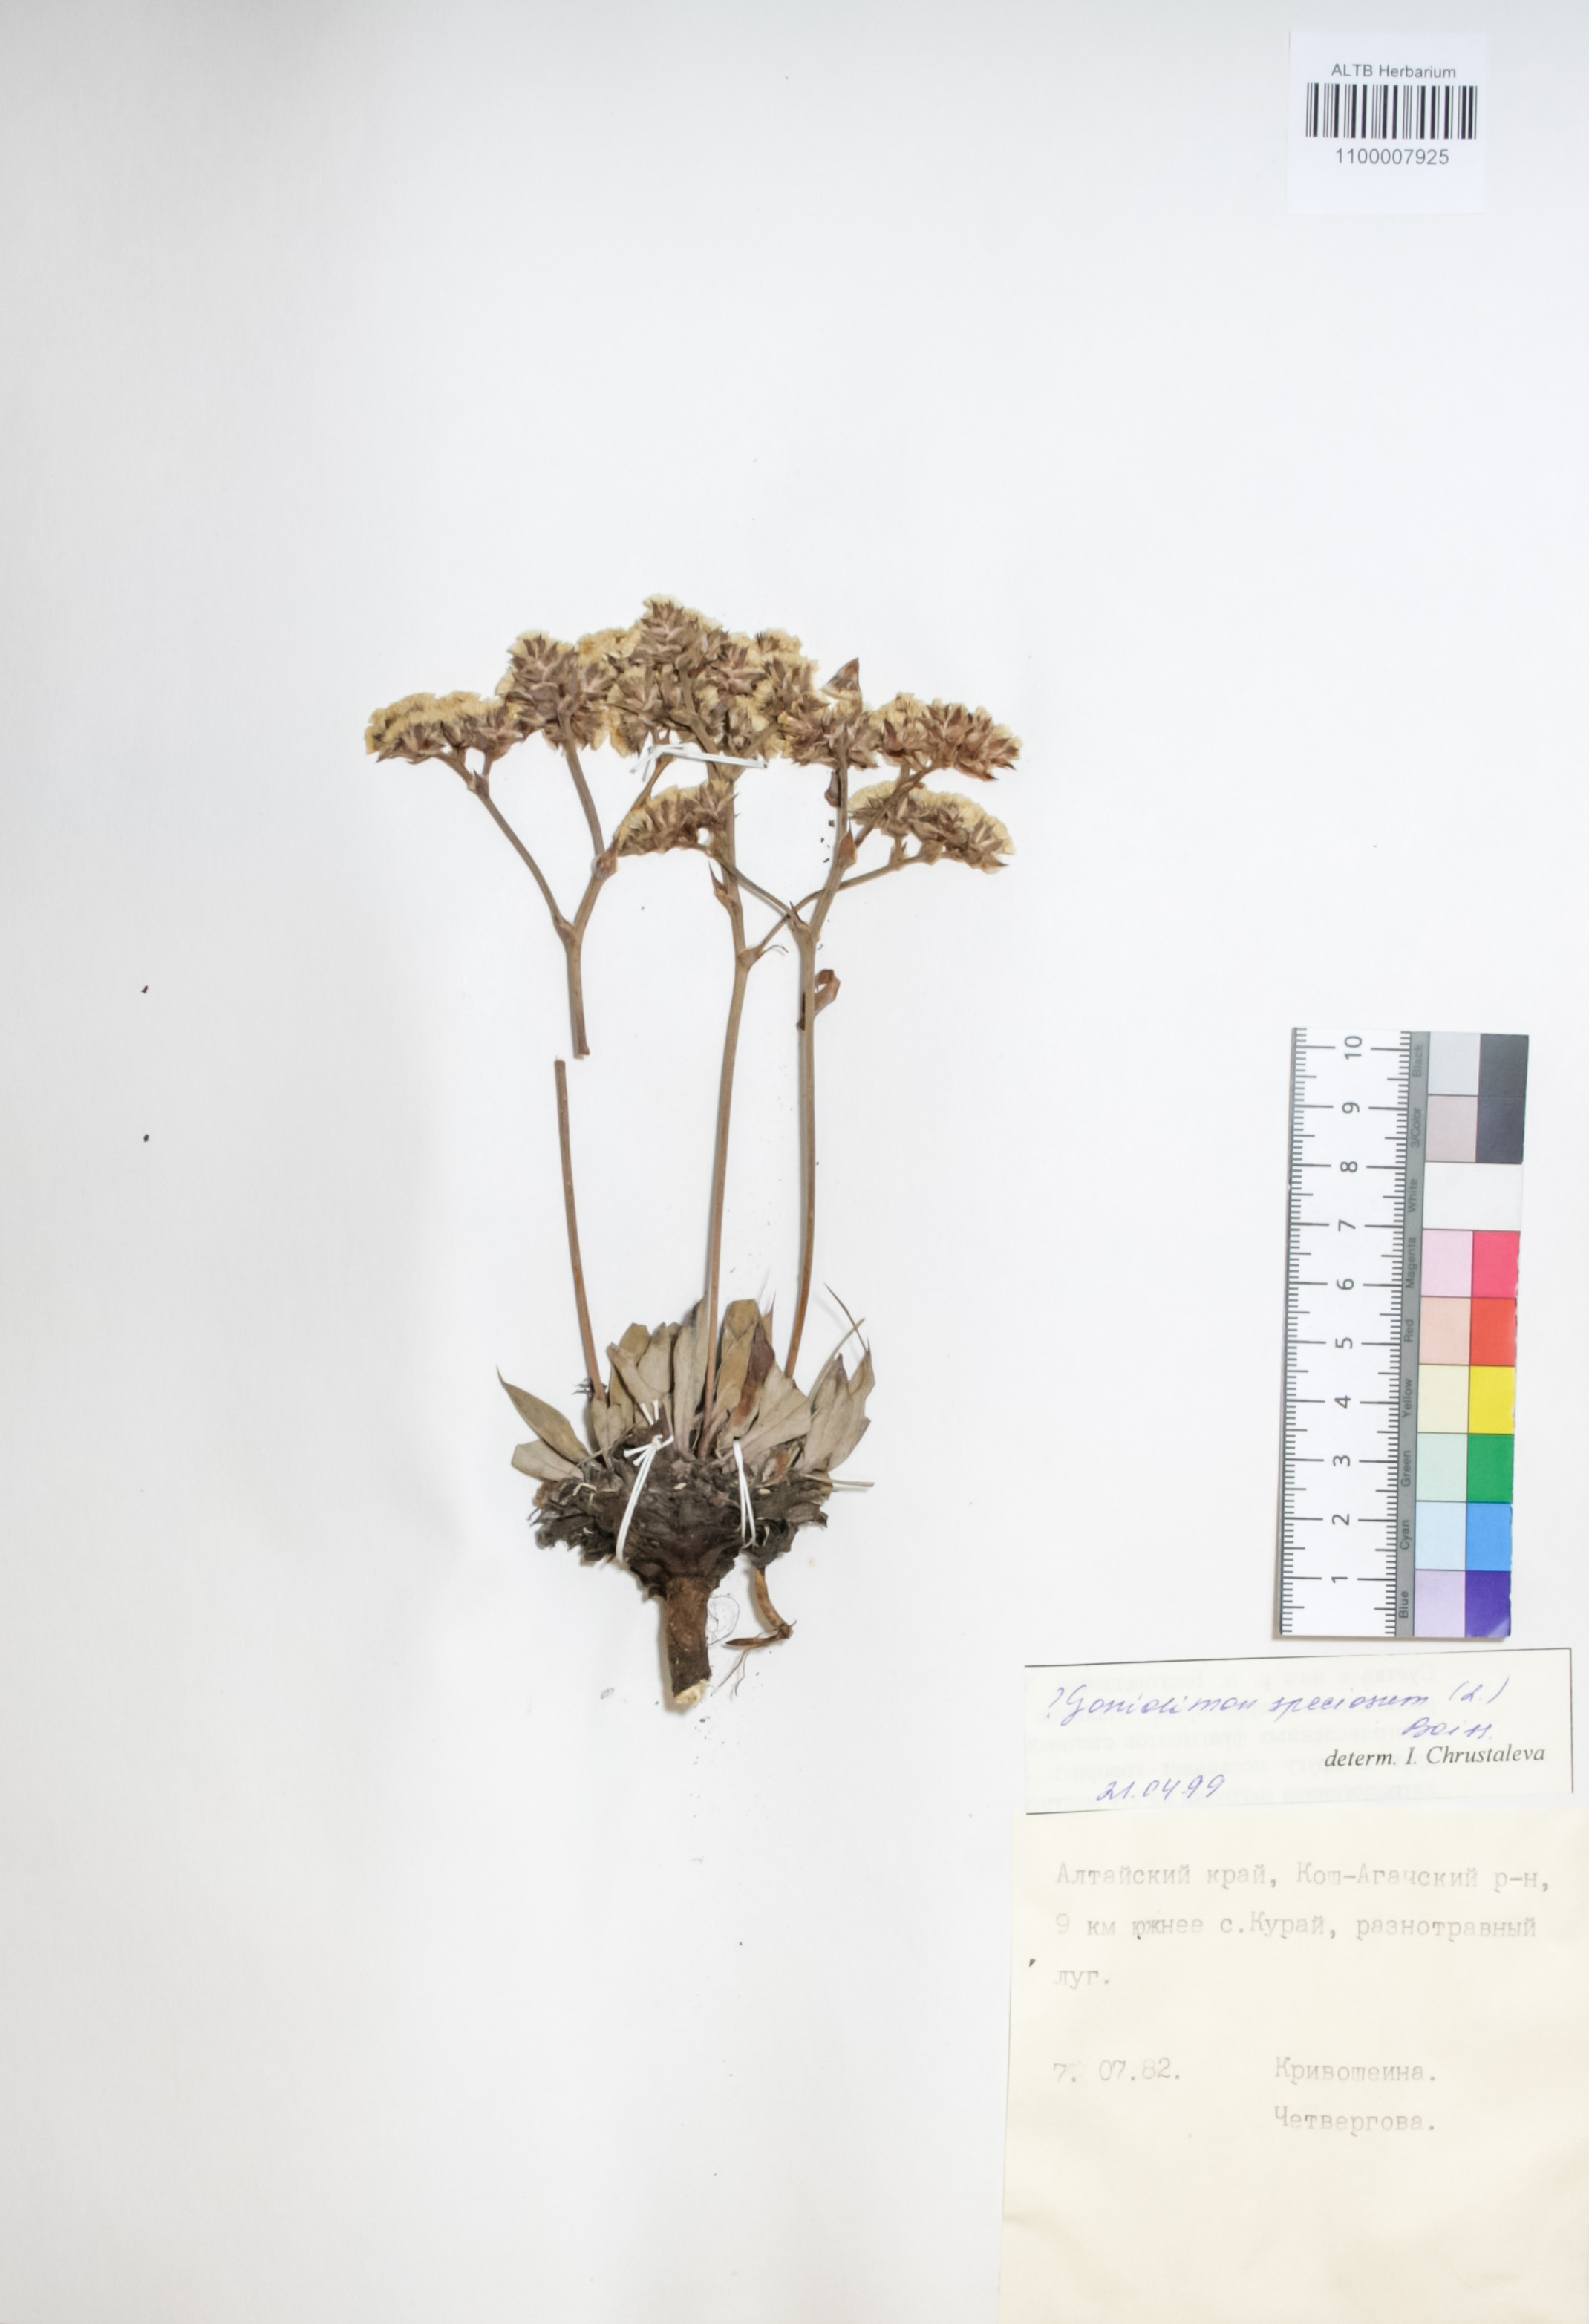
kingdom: Plantae
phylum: Tracheophyta
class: Magnoliopsida
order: Caryophyllales
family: Plumbaginaceae
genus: Goniolimon
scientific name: Goniolimon speciosum
